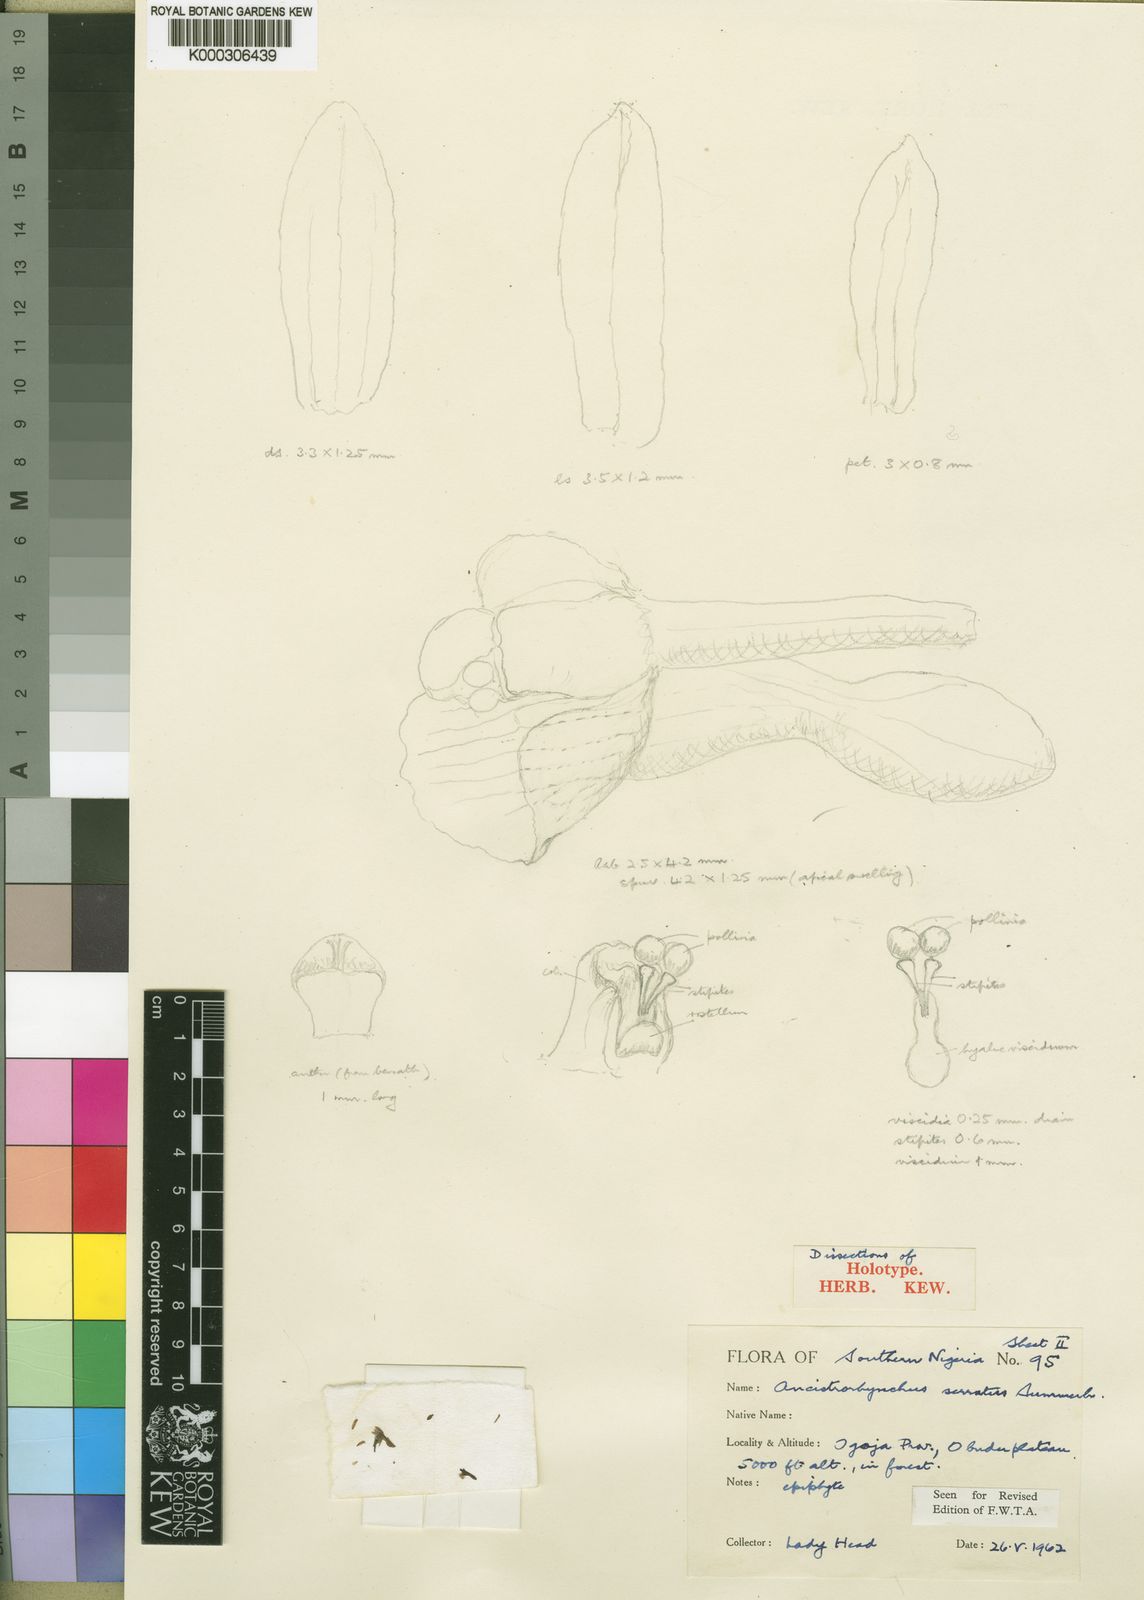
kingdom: Plantae
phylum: Tracheophyta
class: Liliopsida
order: Asparagales
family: Orchidaceae
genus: Ancistrorhynchus
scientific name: Ancistrorhynchus serratus
